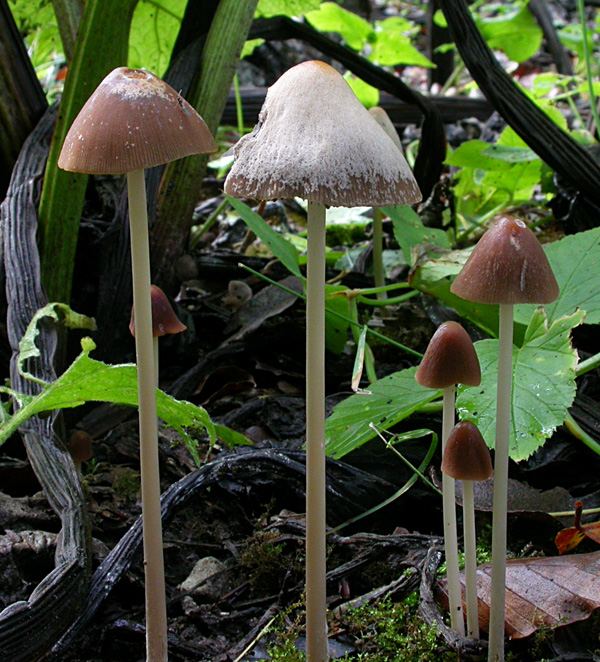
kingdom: Fungi
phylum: Basidiomycota
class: Agaricomycetes
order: Agaricales
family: Psathyrellaceae
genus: Parasola
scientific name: Parasola conopilea
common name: kegle-hjulhat
